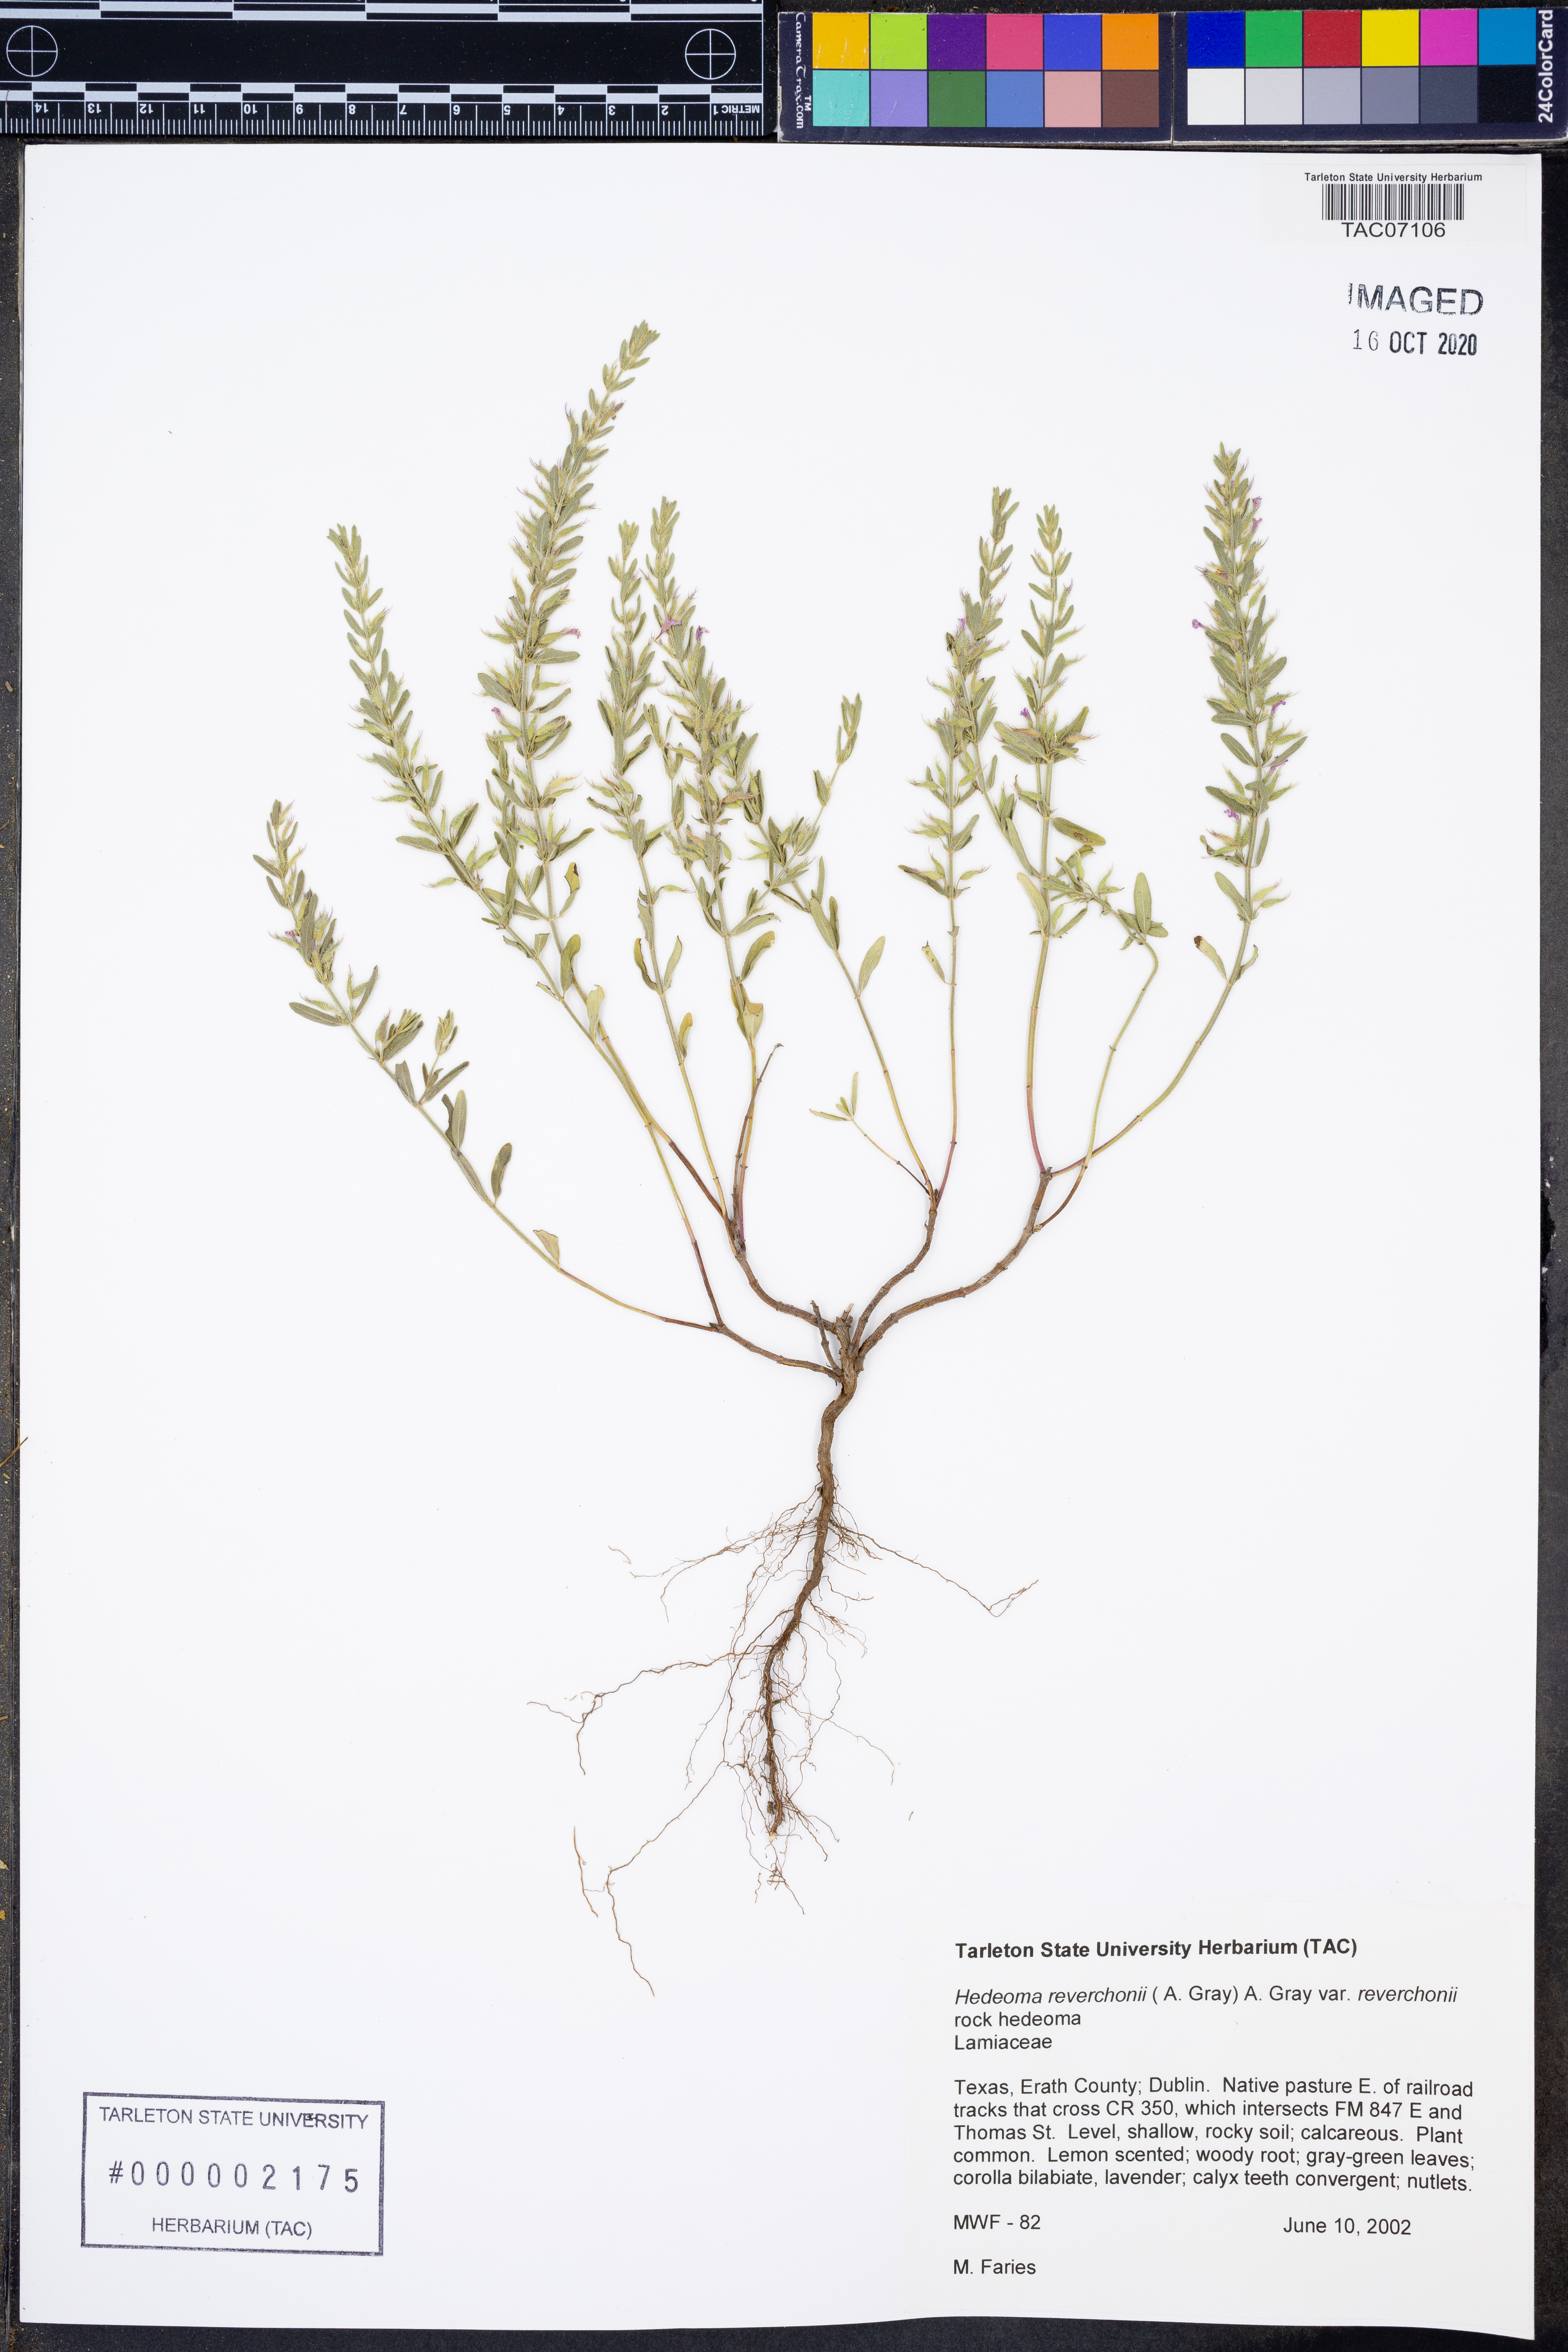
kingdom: Plantae
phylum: Tracheophyta
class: Magnoliopsida
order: Lamiales
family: Lamiaceae
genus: Hedeoma
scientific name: Hedeoma reverchonii
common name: Reverchon's false penny-royal
